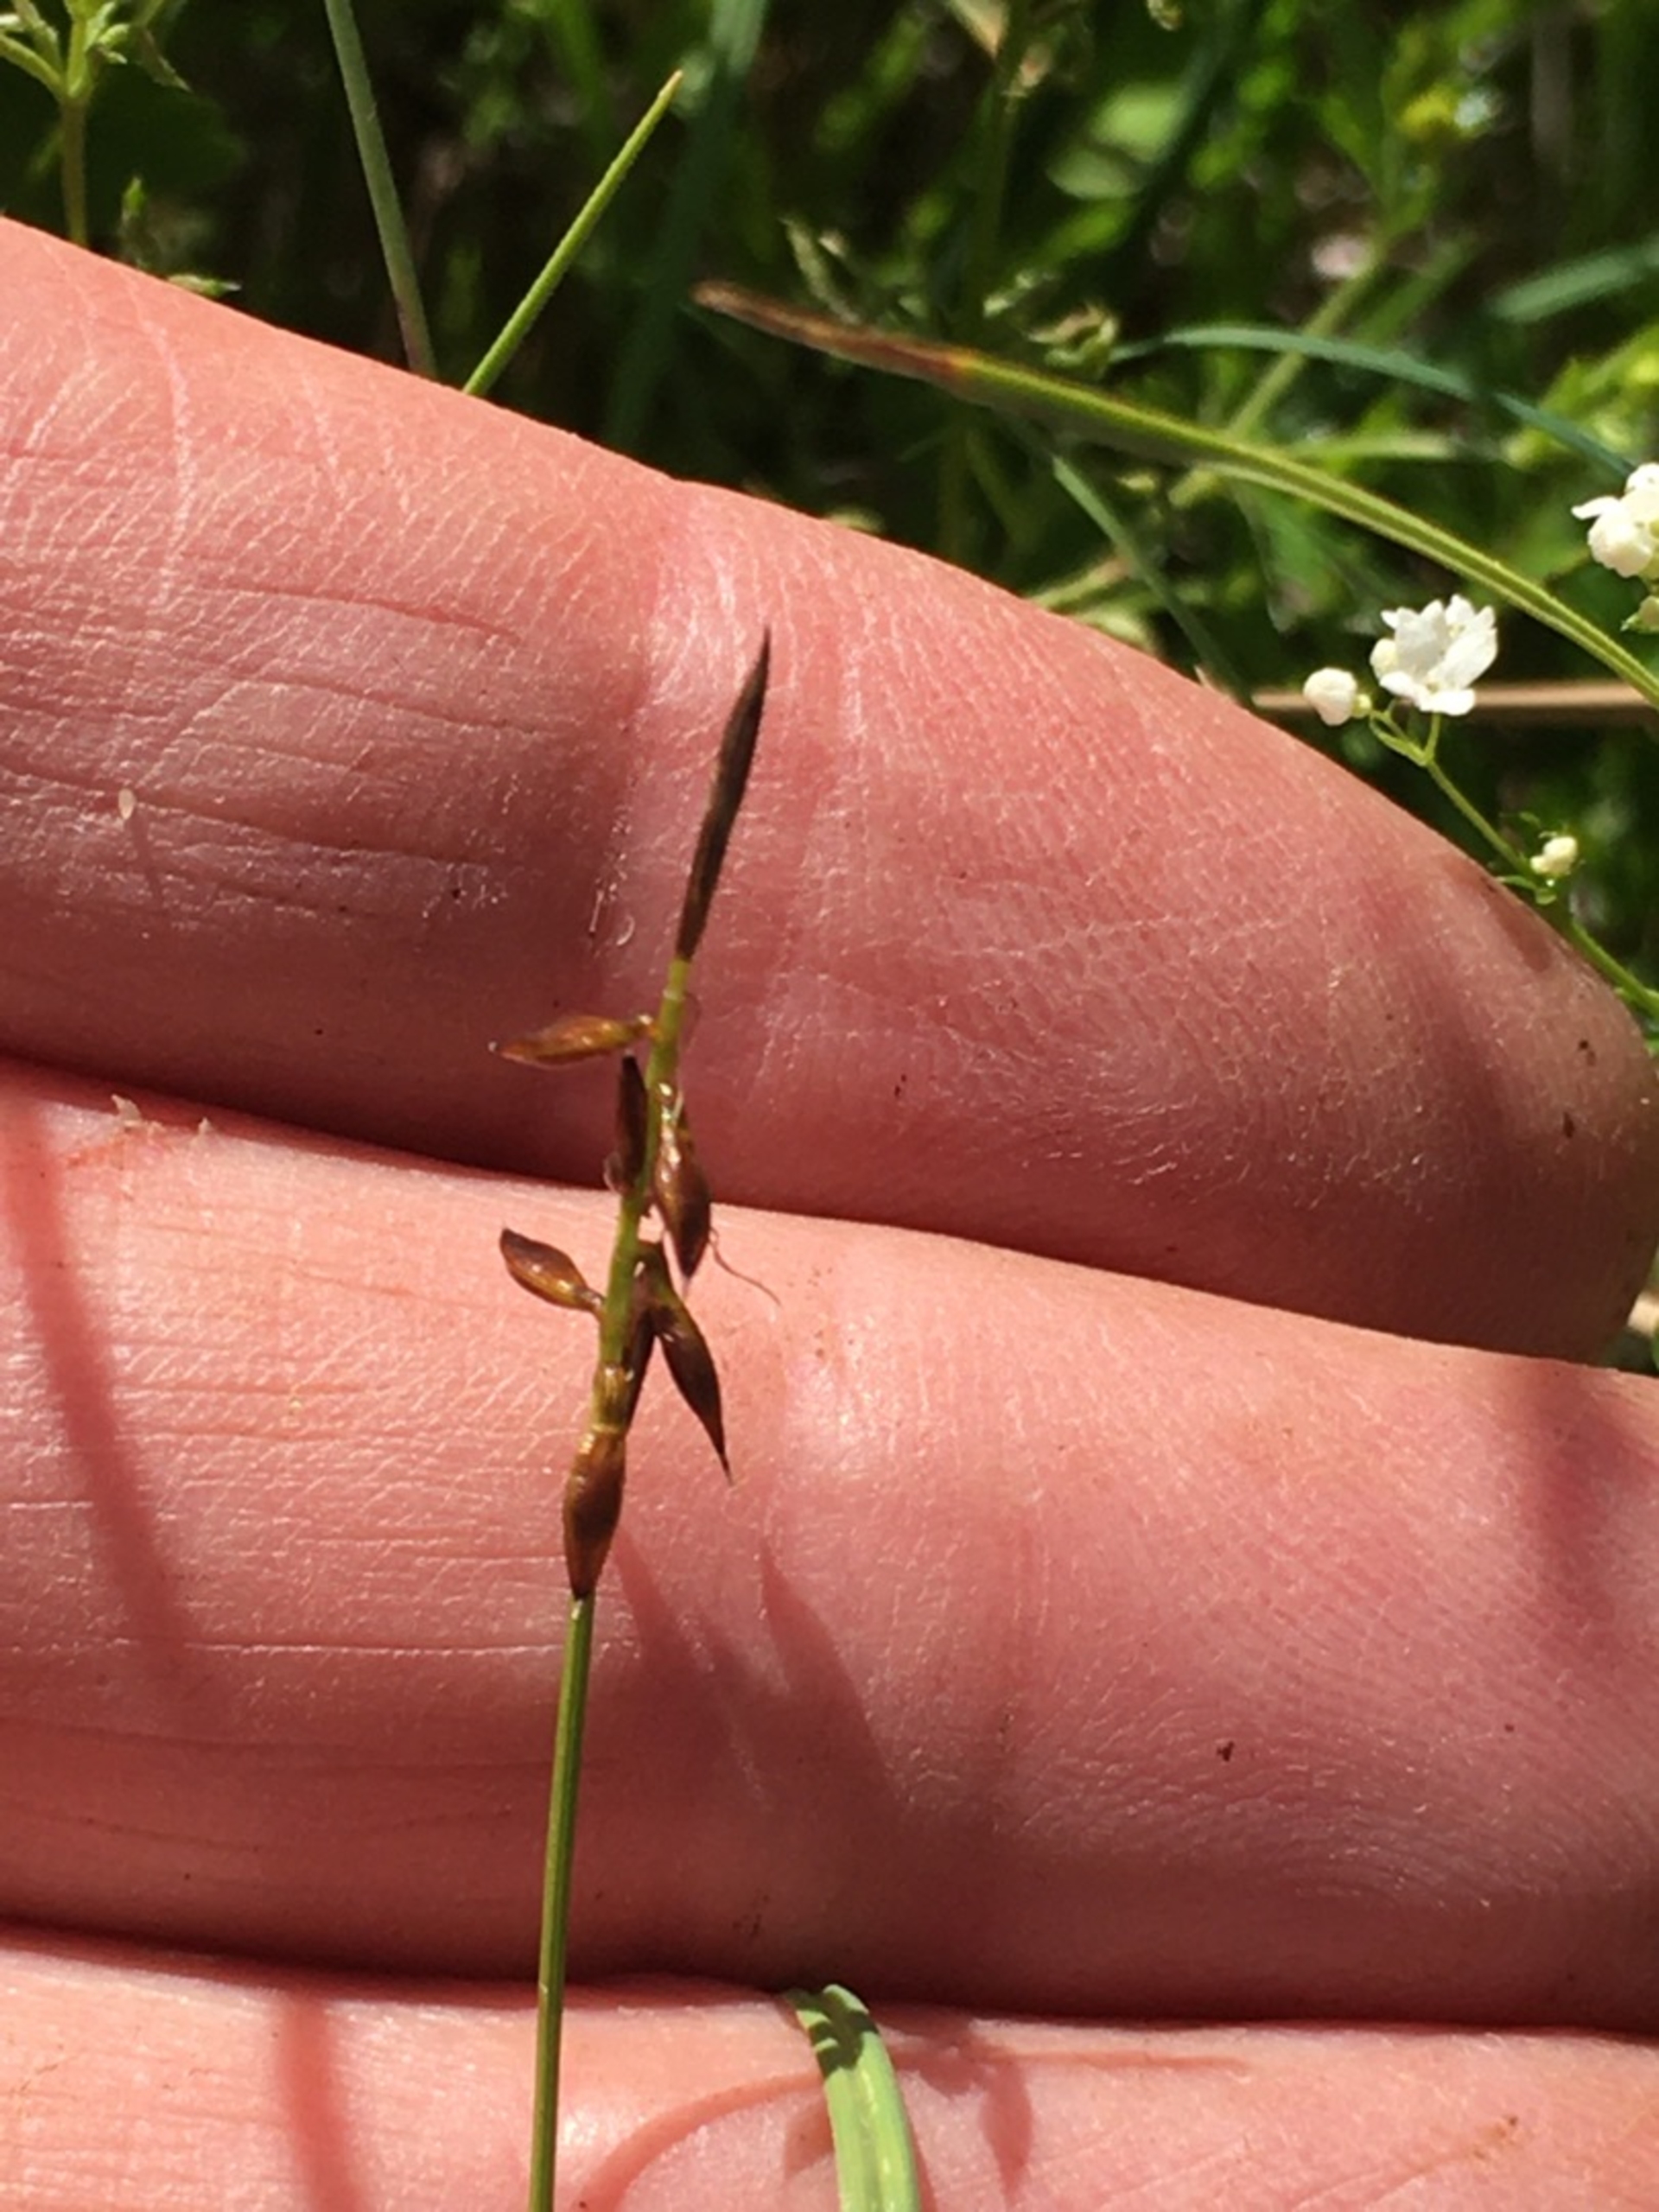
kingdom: Plantae
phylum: Tracheophyta
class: Liliopsida
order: Poales
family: Cyperaceae
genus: Carex
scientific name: Carex pulicaris
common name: Loppe-star
